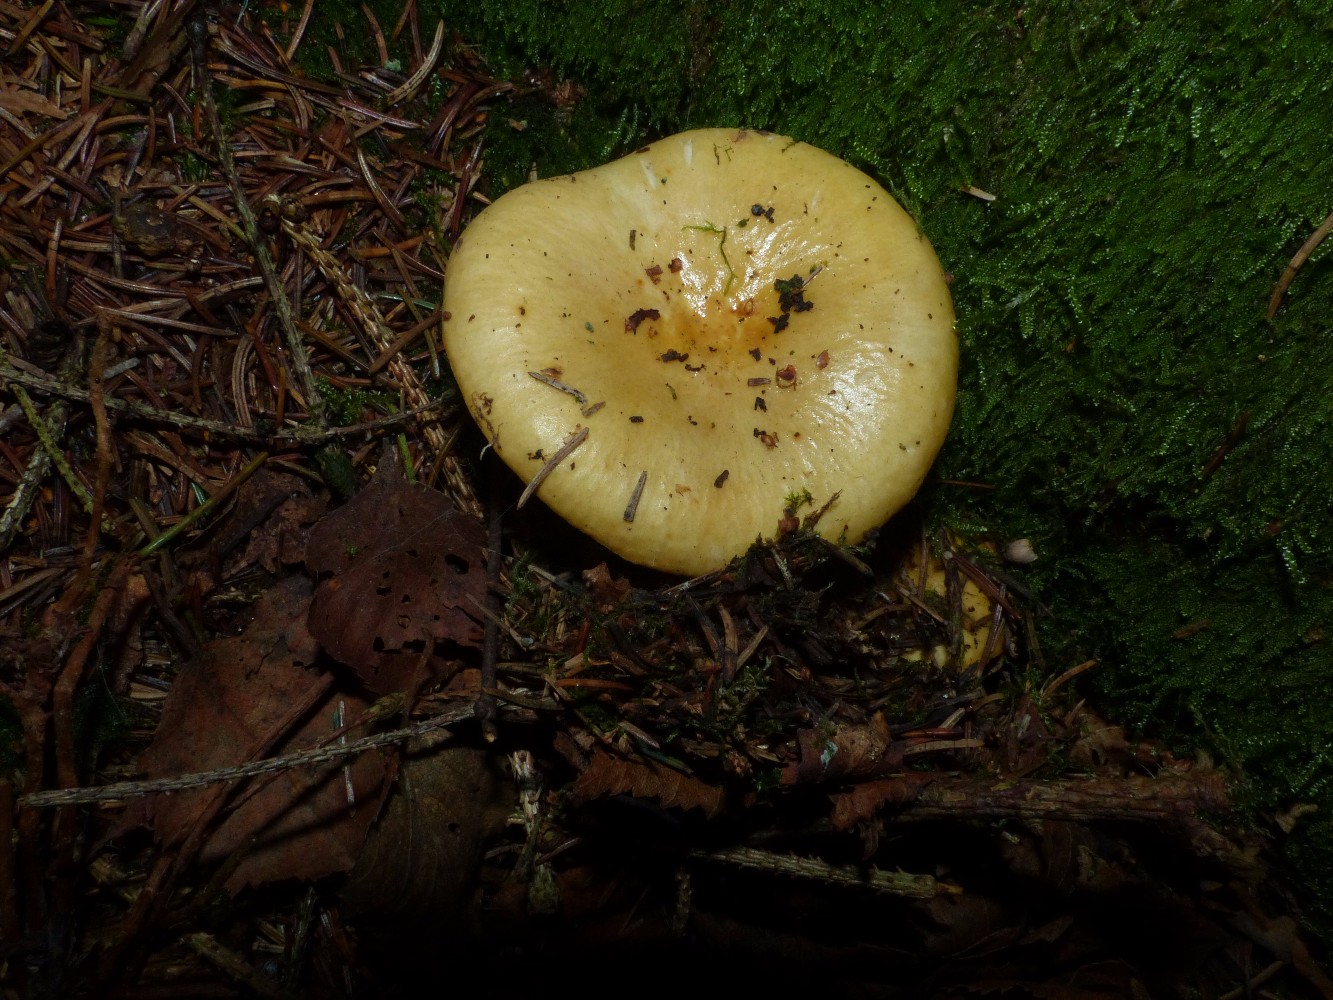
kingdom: Fungi
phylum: Basidiomycota
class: Agaricomycetes
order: Russulales
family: Russulaceae
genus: Russula
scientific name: Russula ochroleuca
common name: okkergul skørhat
